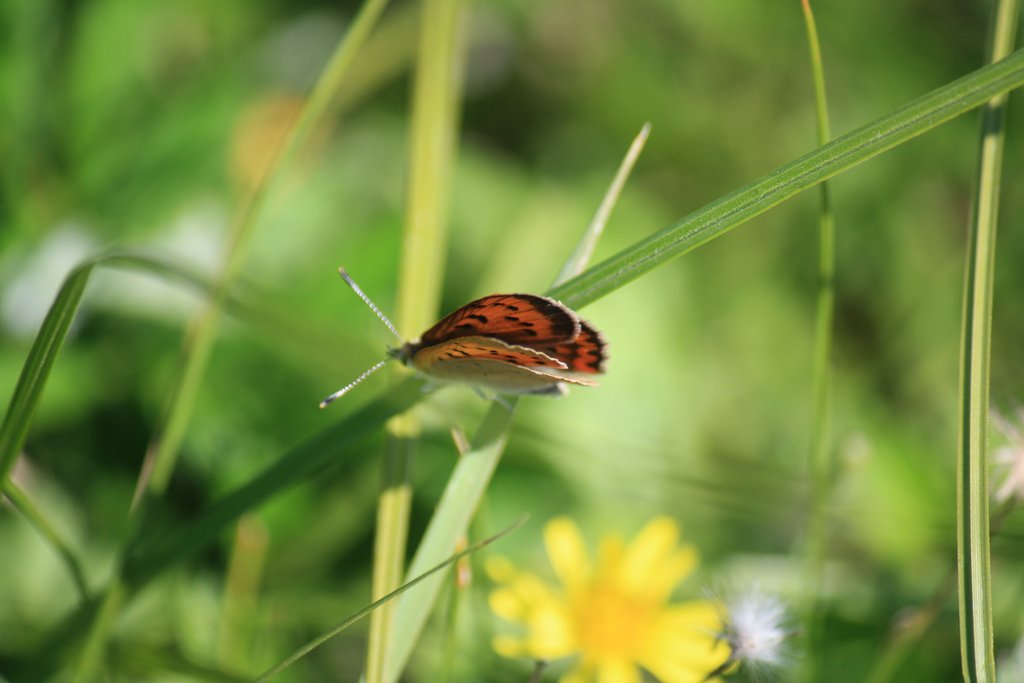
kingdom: Animalia
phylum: Arthropoda
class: Insecta
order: Lepidoptera
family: Sesiidae
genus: Sesia
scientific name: Sesia Lycaena helloides
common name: Purplish Copper
